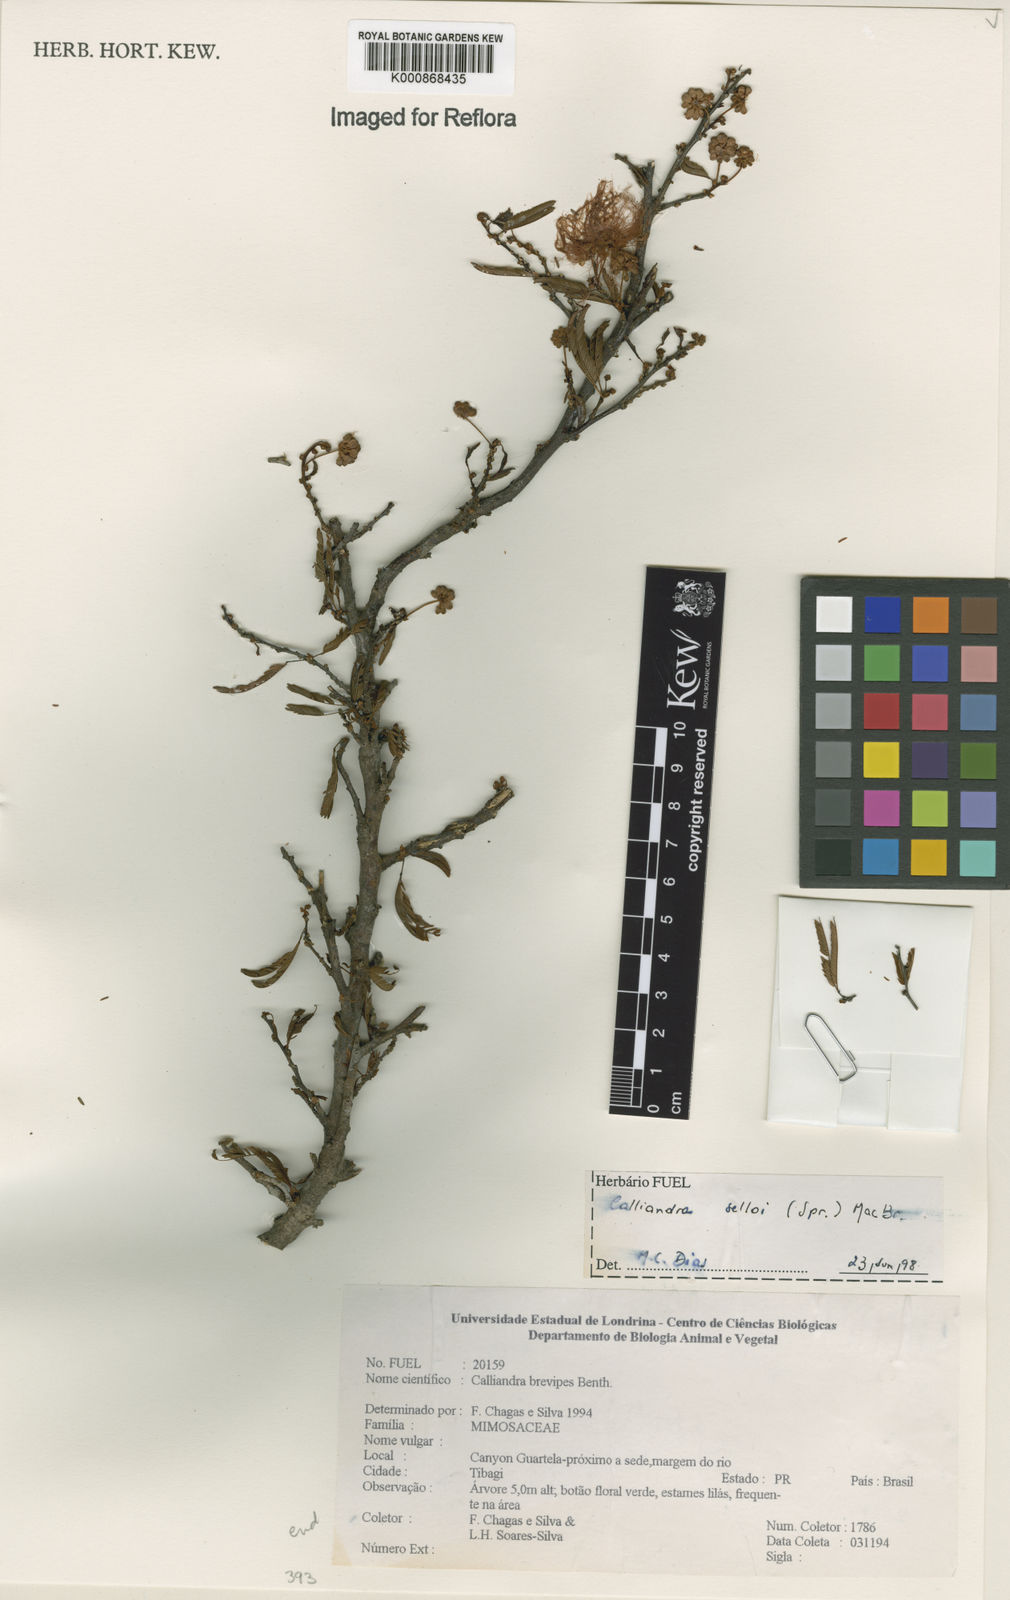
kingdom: Plantae
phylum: Tracheophyta
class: Magnoliopsida
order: Fabales
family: Fabaceae
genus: Calliandra
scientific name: Calliandra selloi
